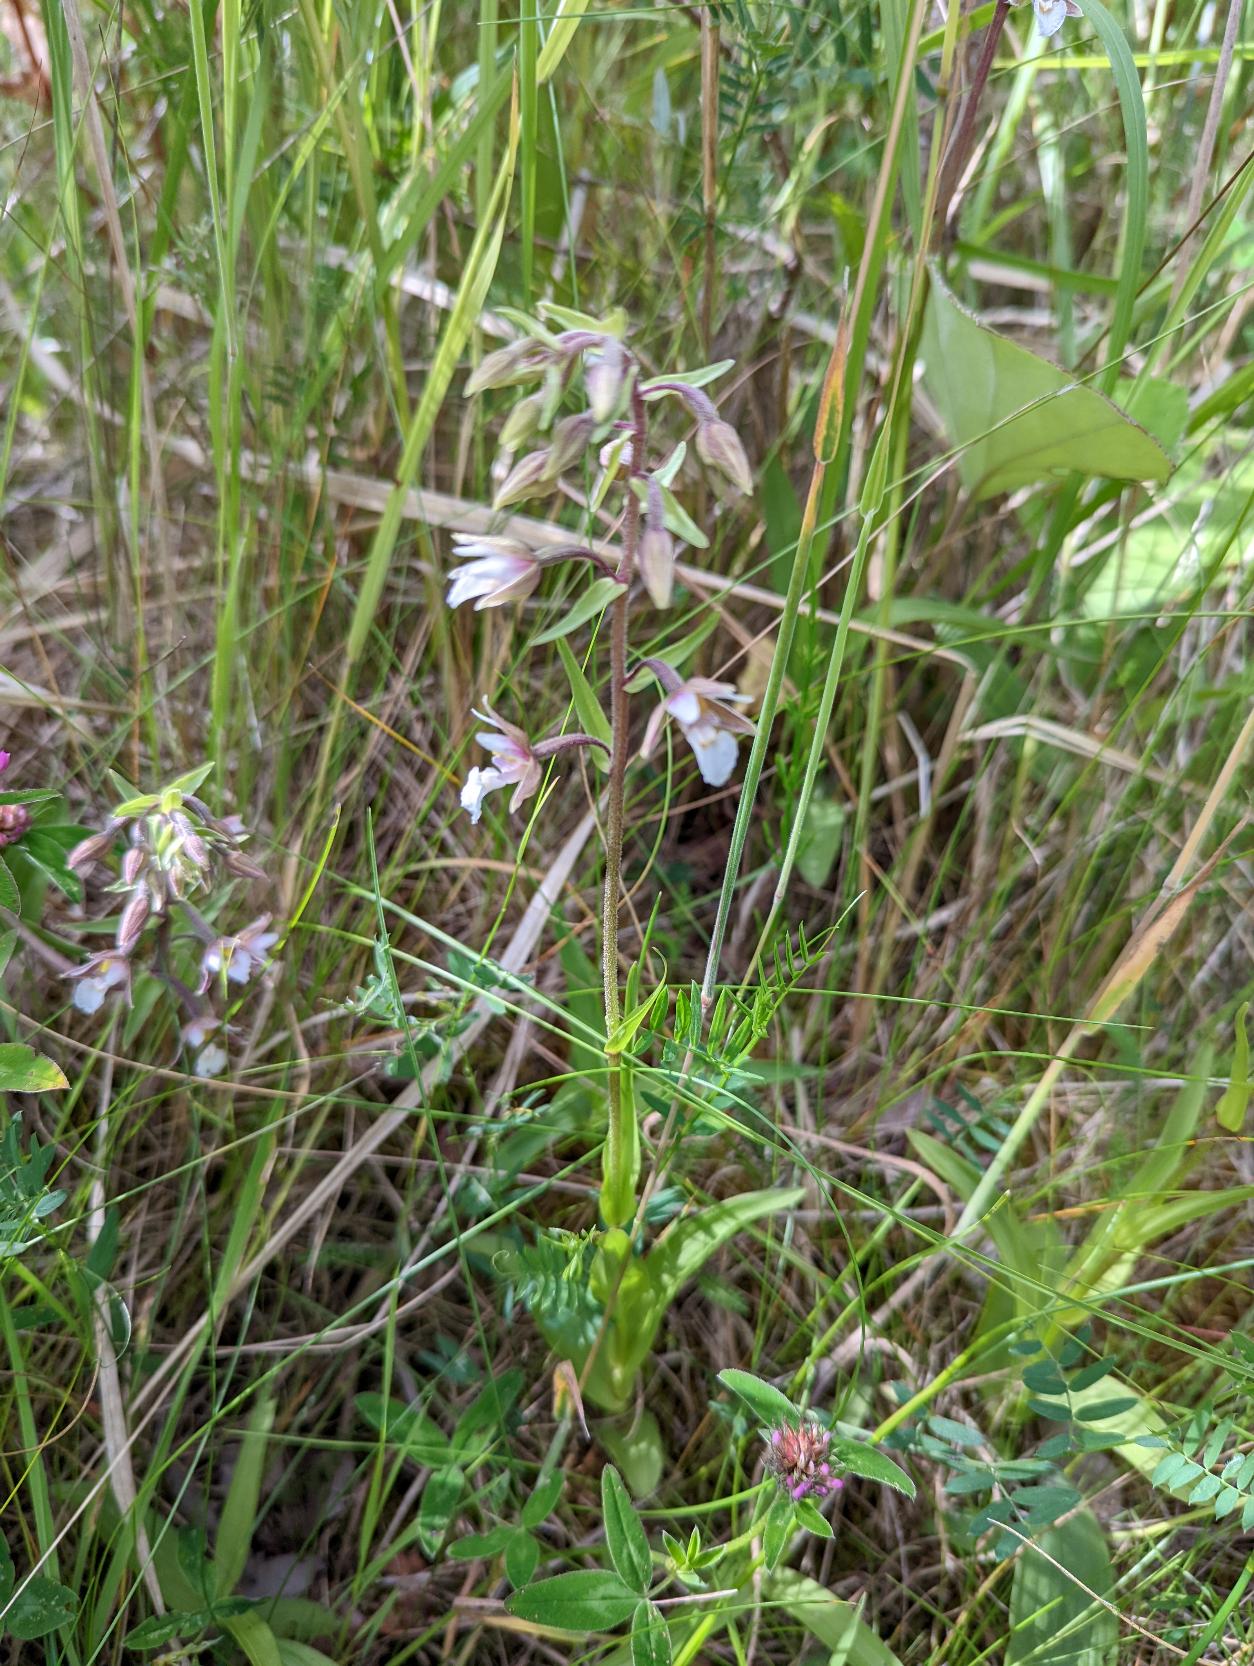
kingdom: Plantae
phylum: Tracheophyta
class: Liliopsida
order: Asparagales
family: Orchidaceae
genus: Epipactis
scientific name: Epipactis palustris
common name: Sump-hullæbe
